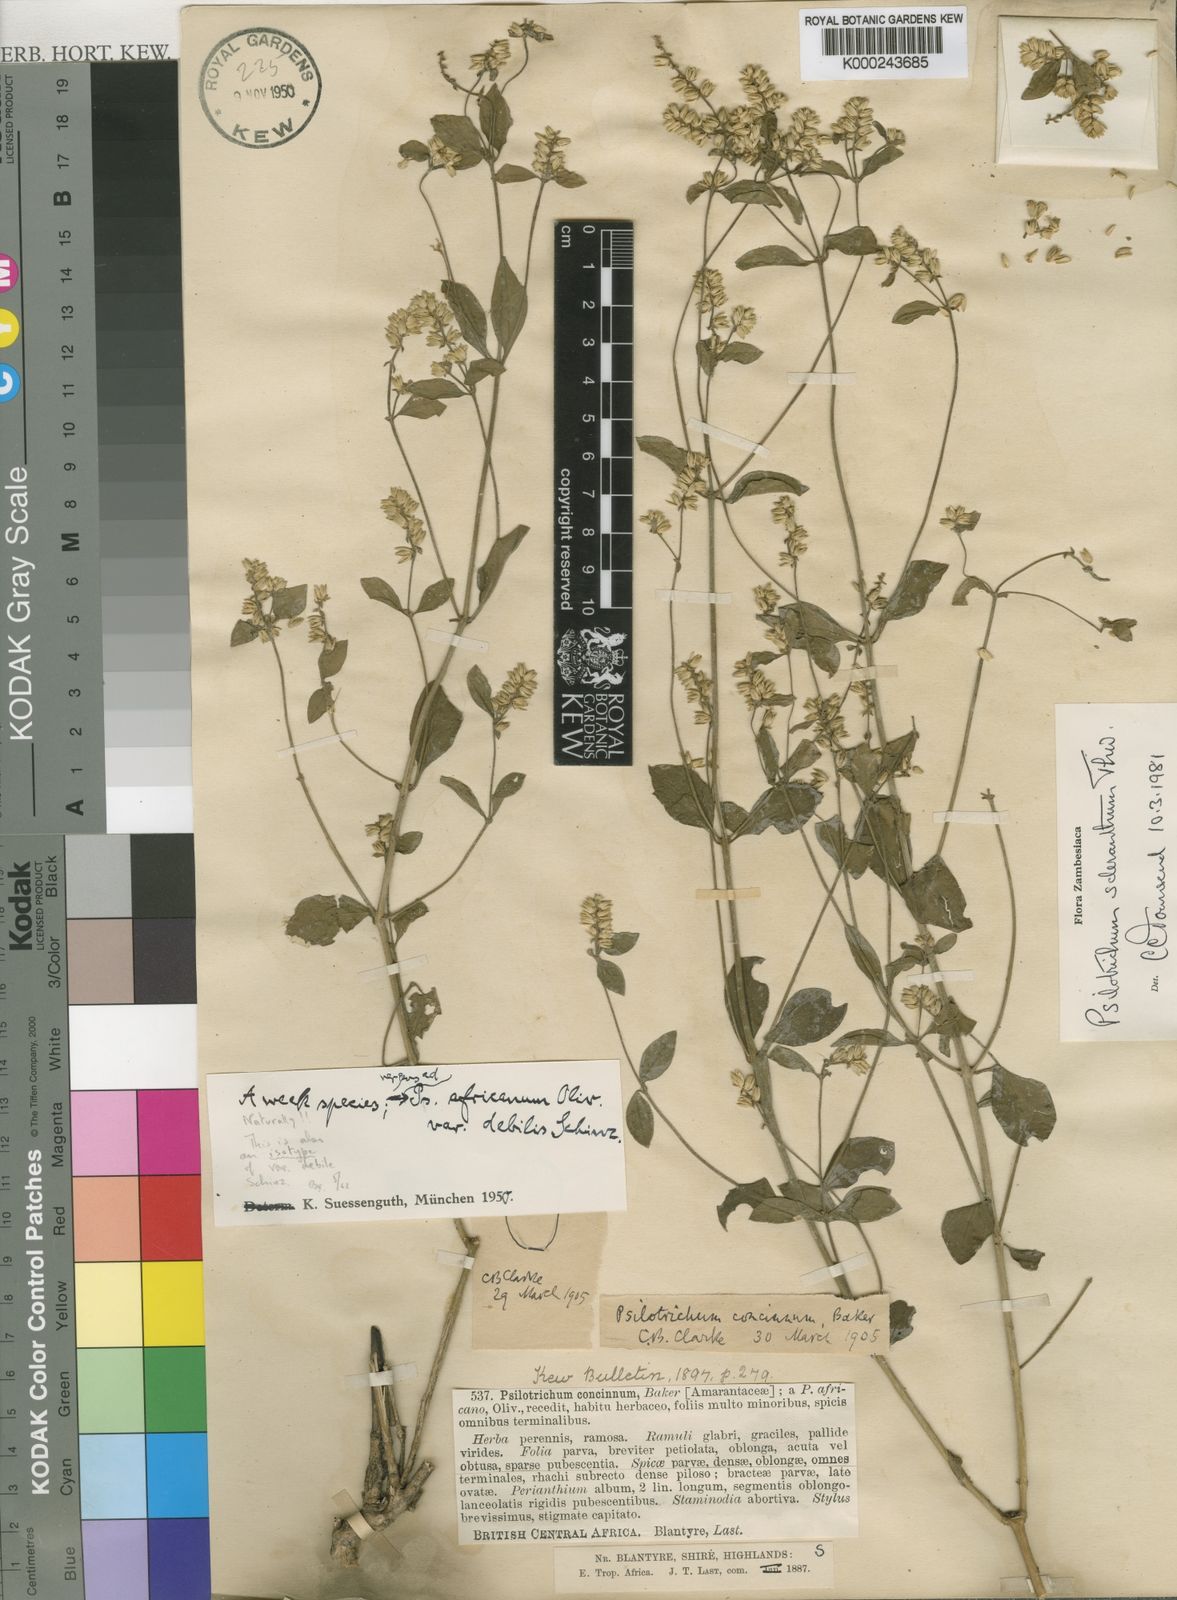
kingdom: Plantae
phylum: Tracheophyta
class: Magnoliopsida
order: Caryophyllales
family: Amaranthaceae
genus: Psilotrichum
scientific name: Psilotrichum scleranthum
